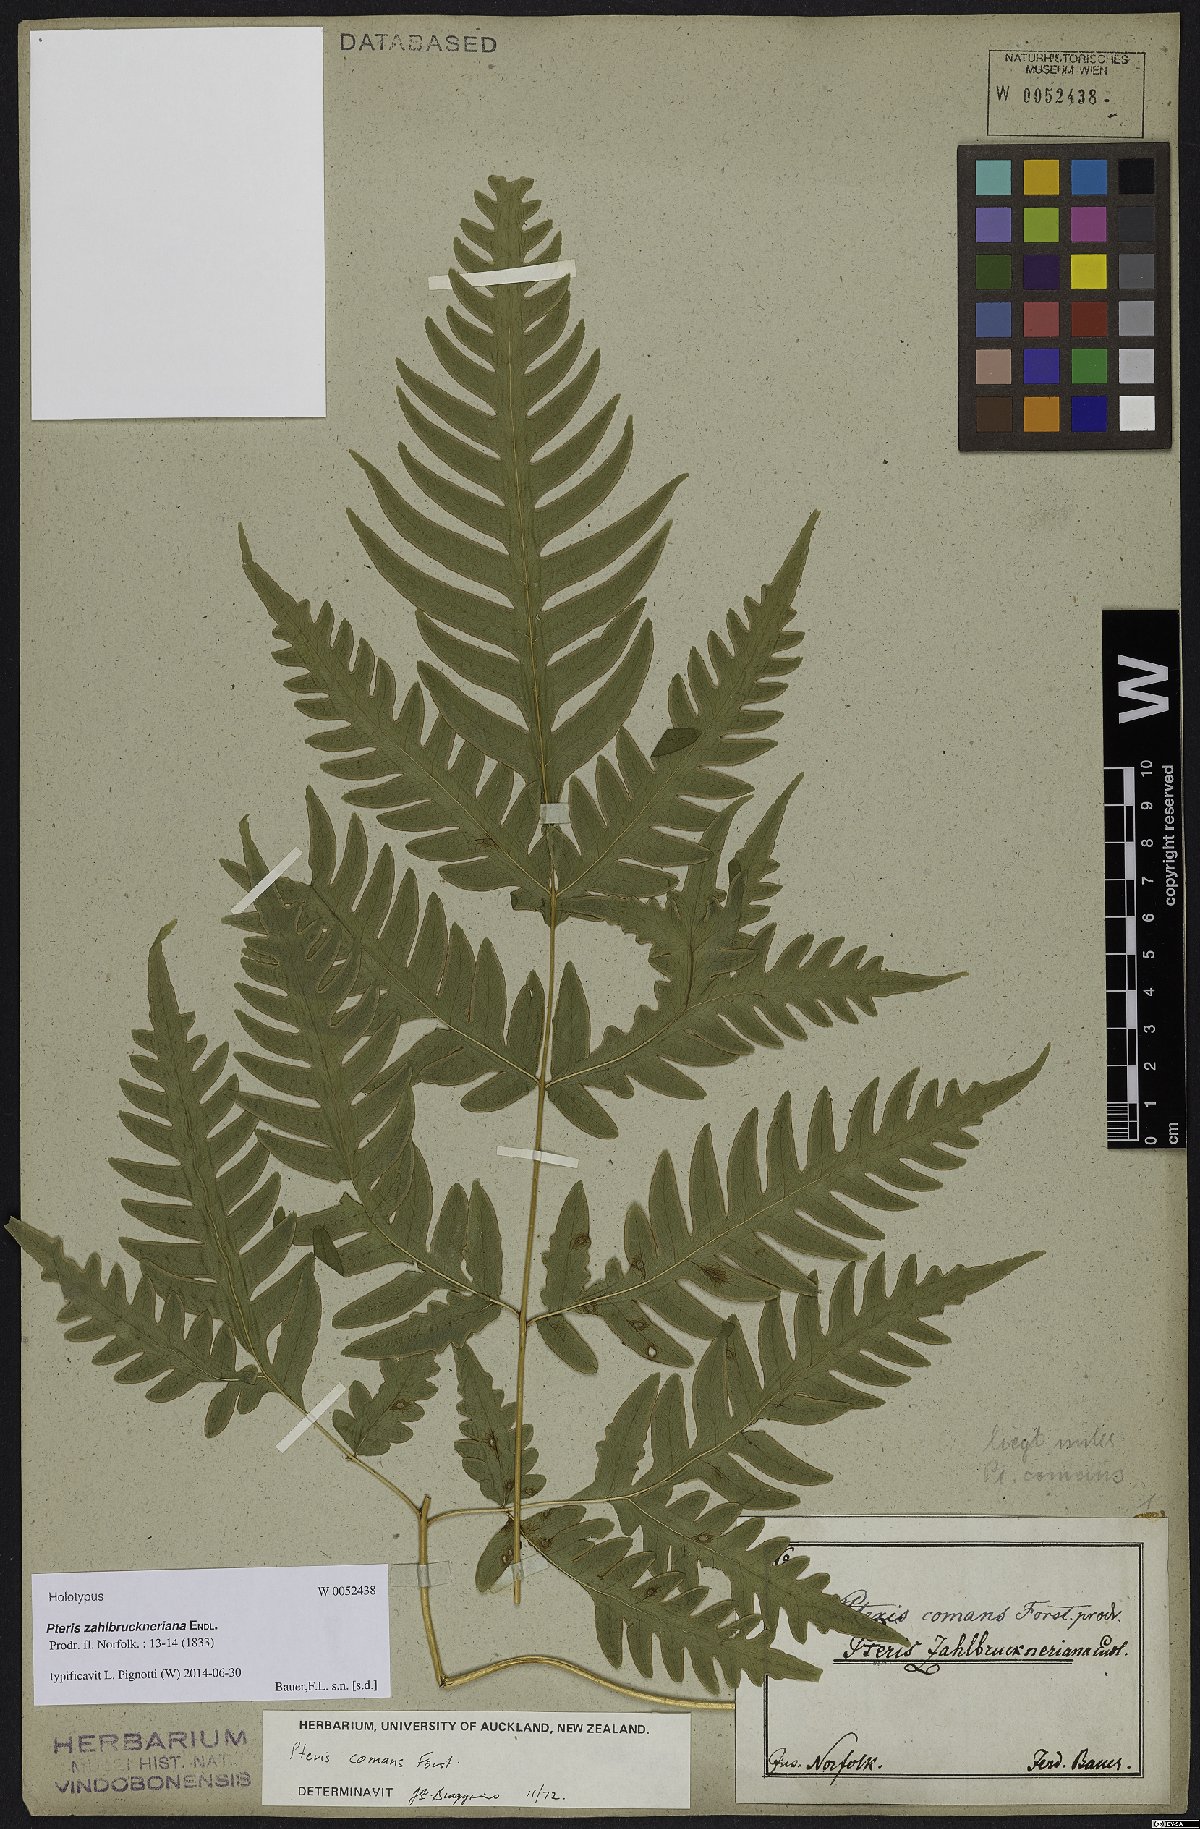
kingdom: Plantae
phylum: Tracheophyta
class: Polypodiopsida
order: Polypodiales
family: Pteridaceae
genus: Pteris
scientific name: Pteris zahlbruckneriana
